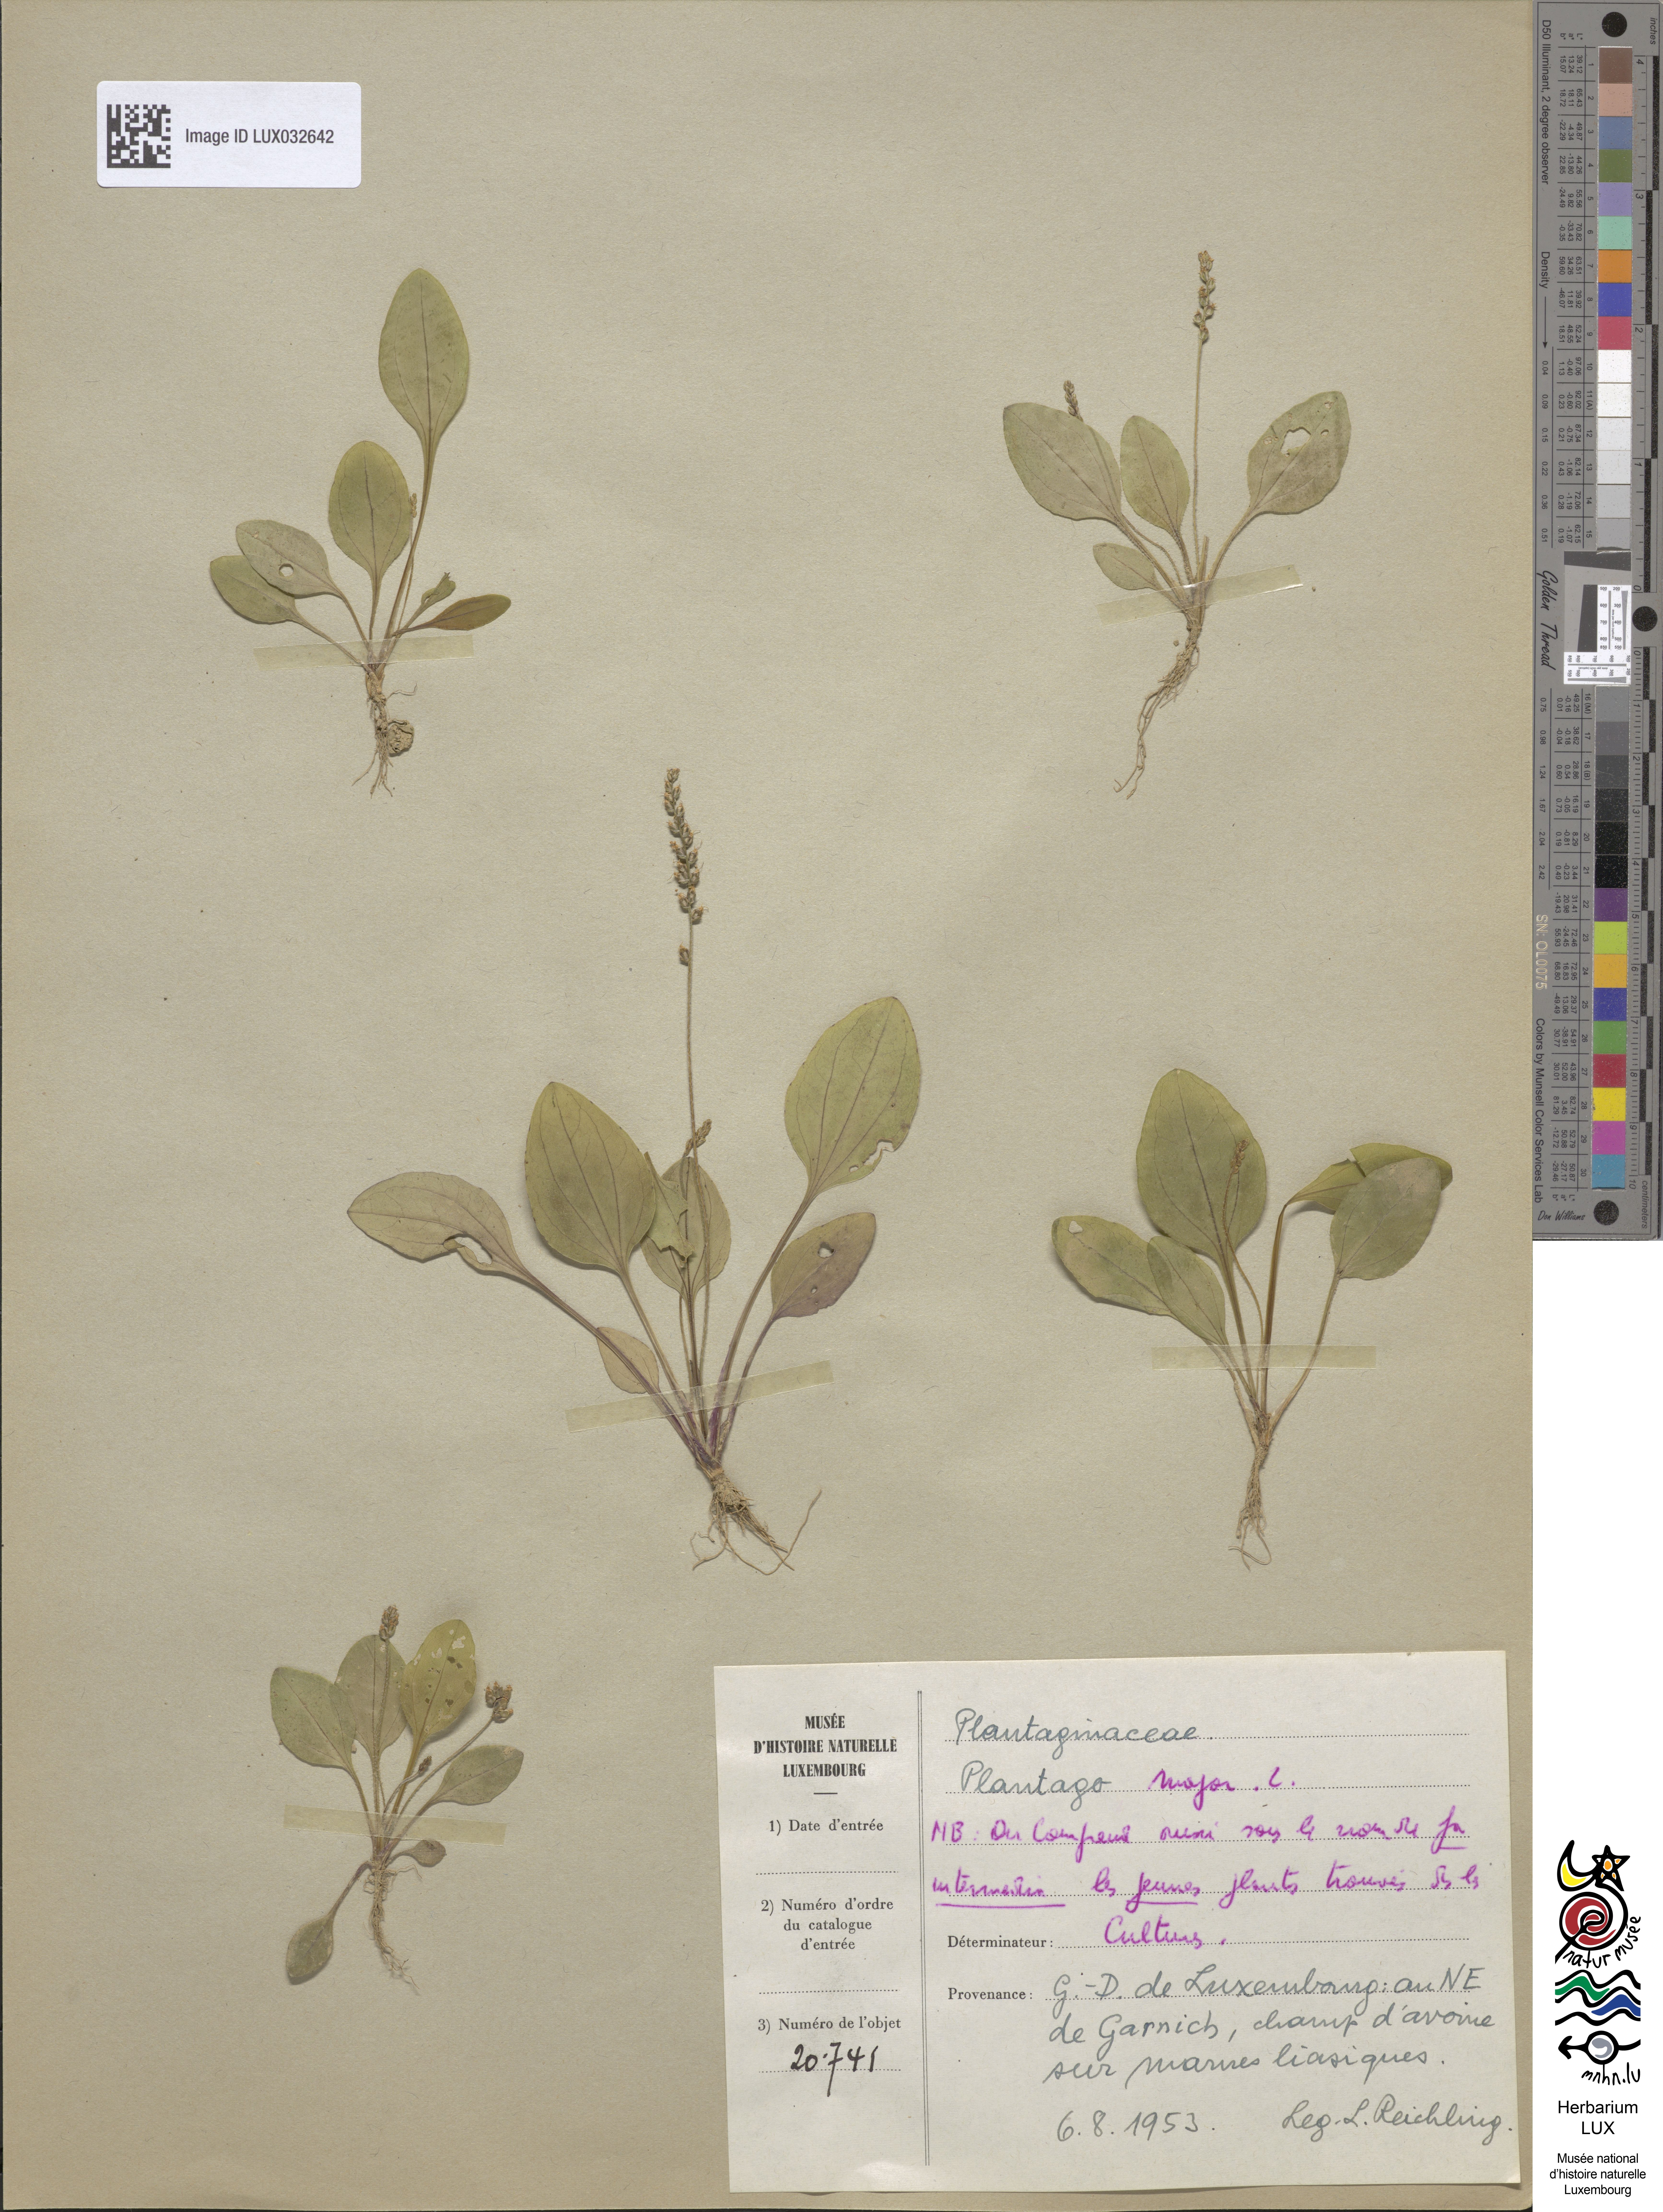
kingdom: Plantae
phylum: Tracheophyta
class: Magnoliopsida
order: Lamiales
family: Plantaginaceae
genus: Plantago
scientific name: Plantago major
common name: Common plantain
